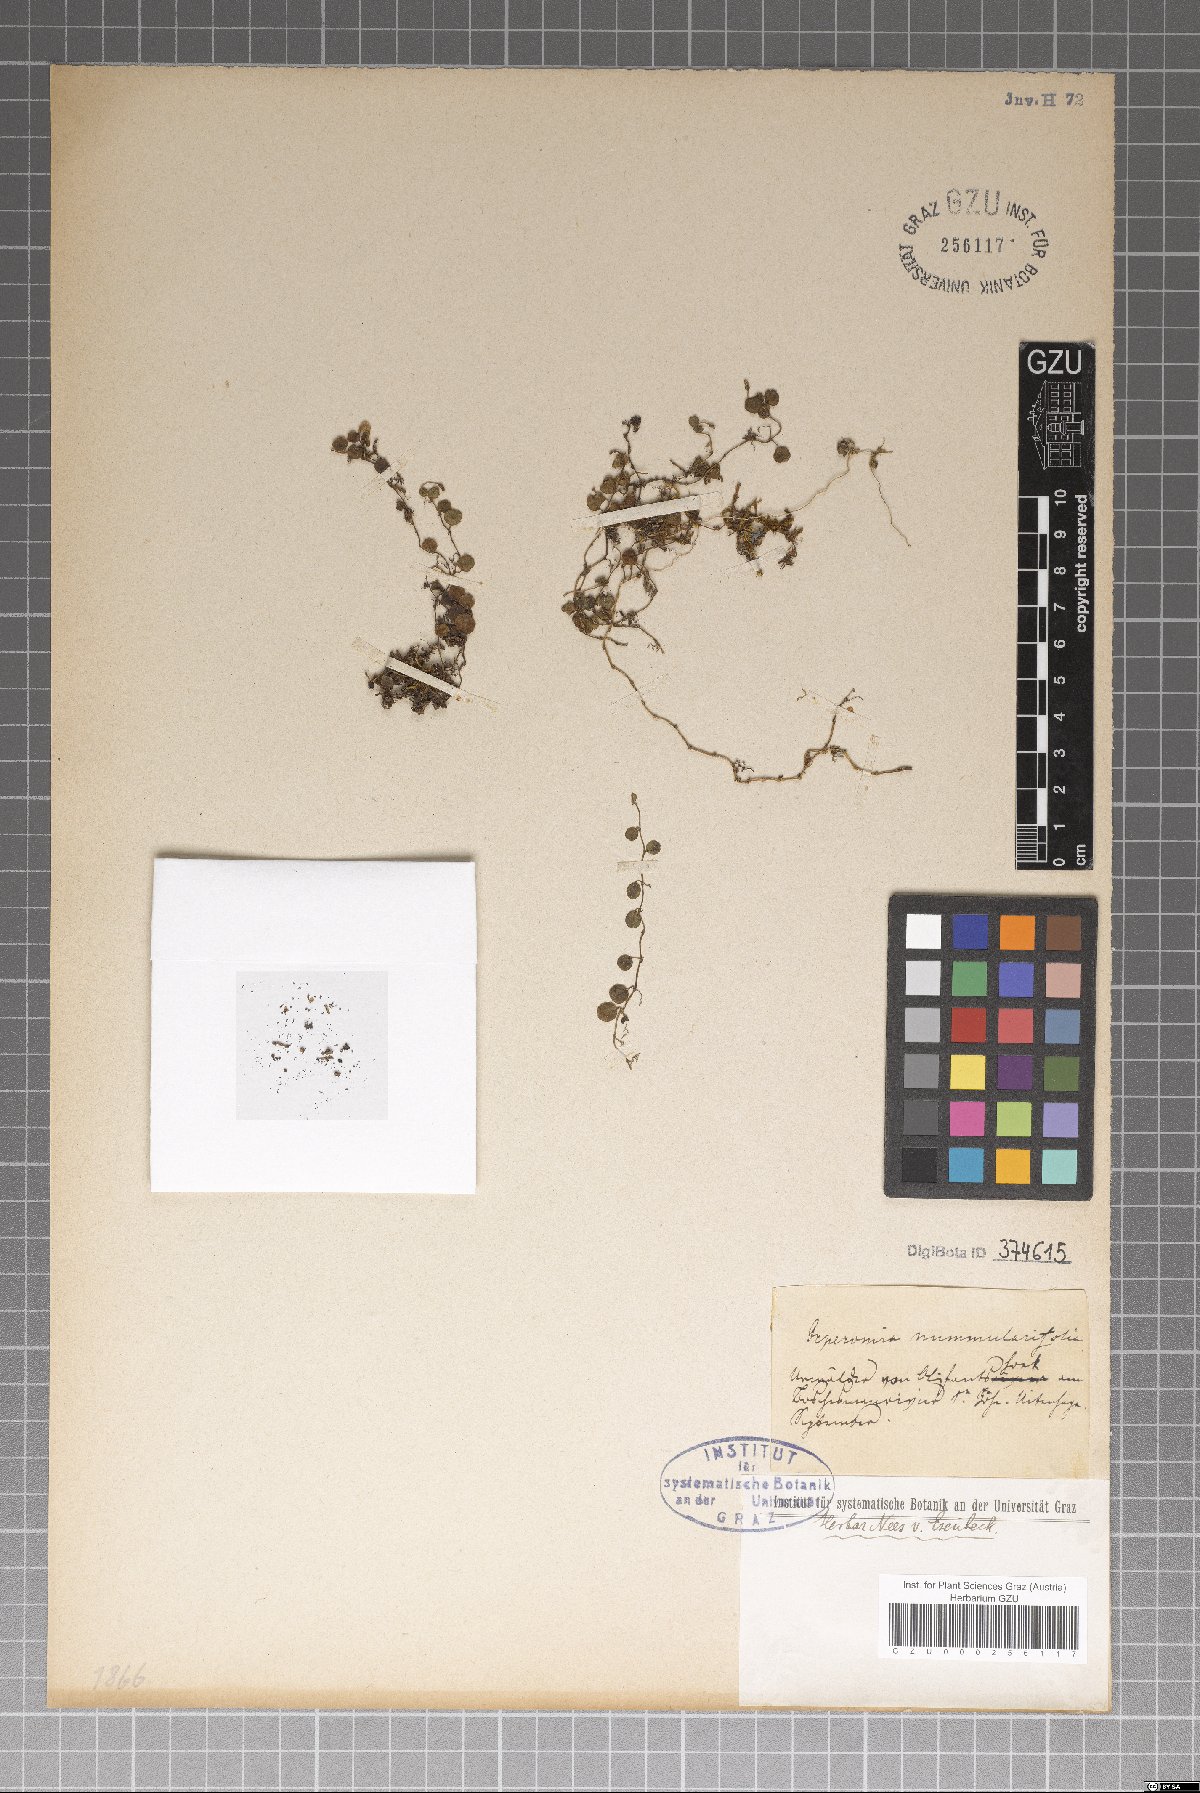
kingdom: Plantae
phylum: Tracheophyta
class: Magnoliopsida
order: Piperales
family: Piperaceae
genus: Peperomia
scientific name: Peperomia
